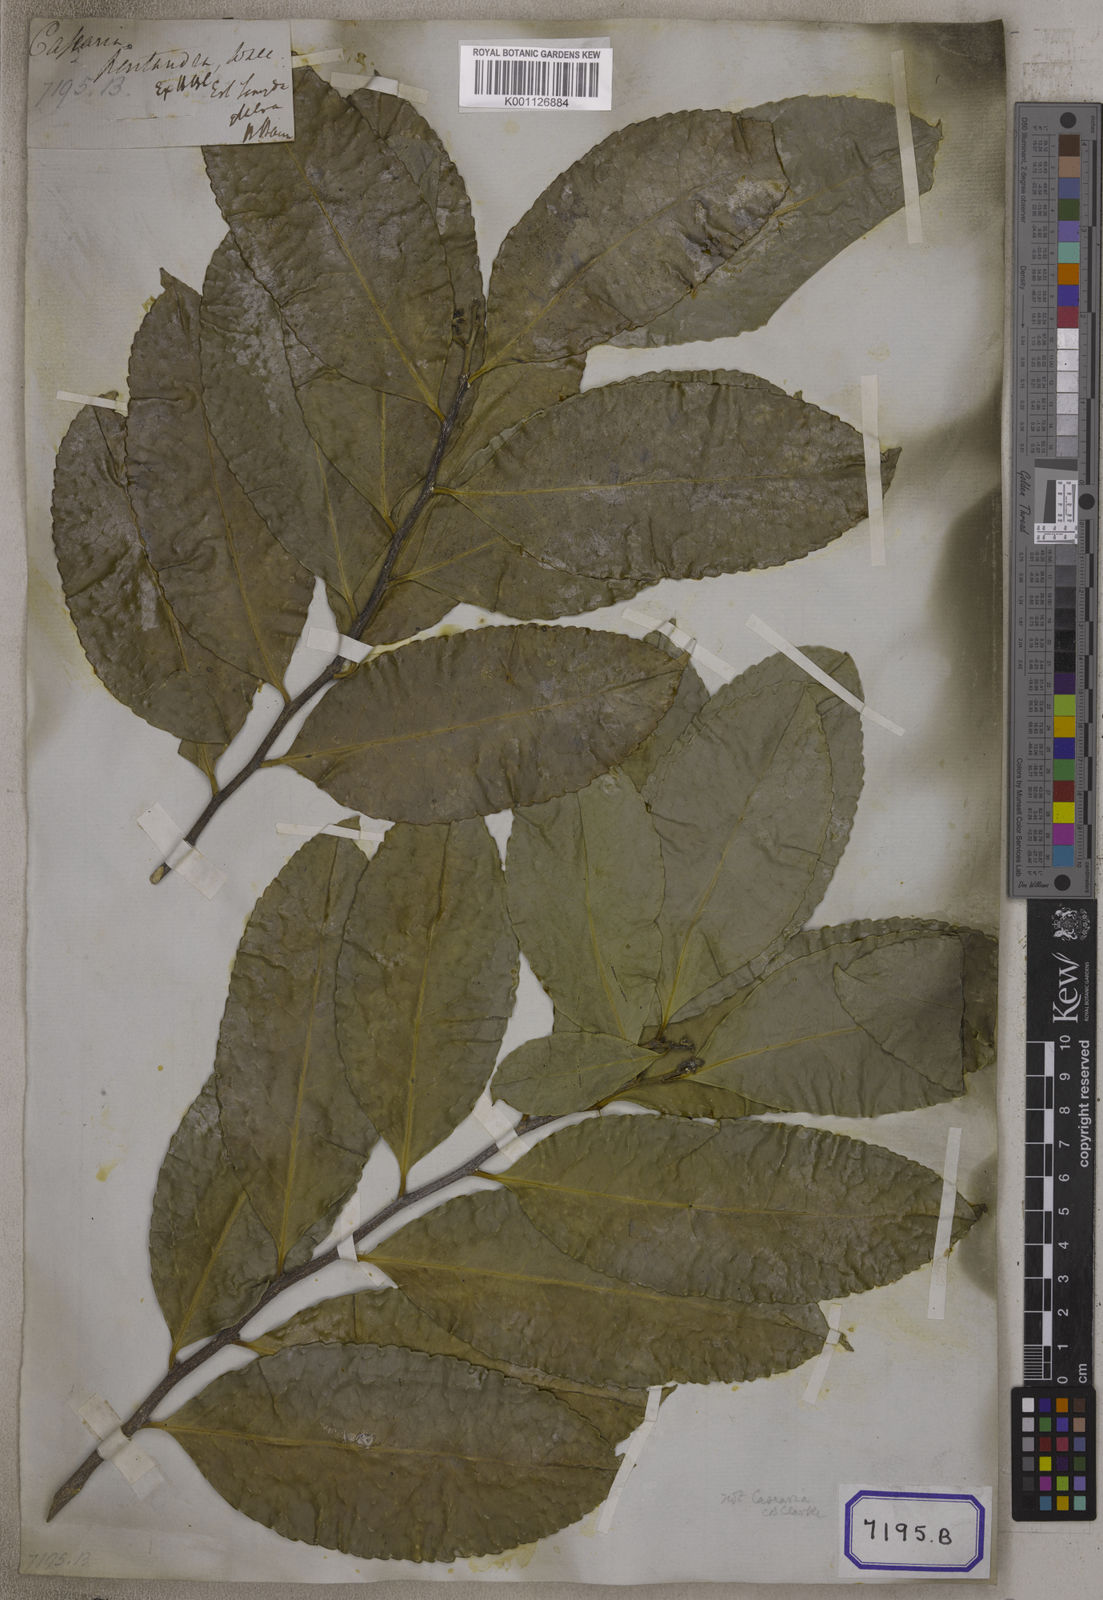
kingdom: Plantae
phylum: Tracheophyta
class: Magnoliopsida
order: Malpighiales
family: Salicaceae
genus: Casearia
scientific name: Casearia graveolens
